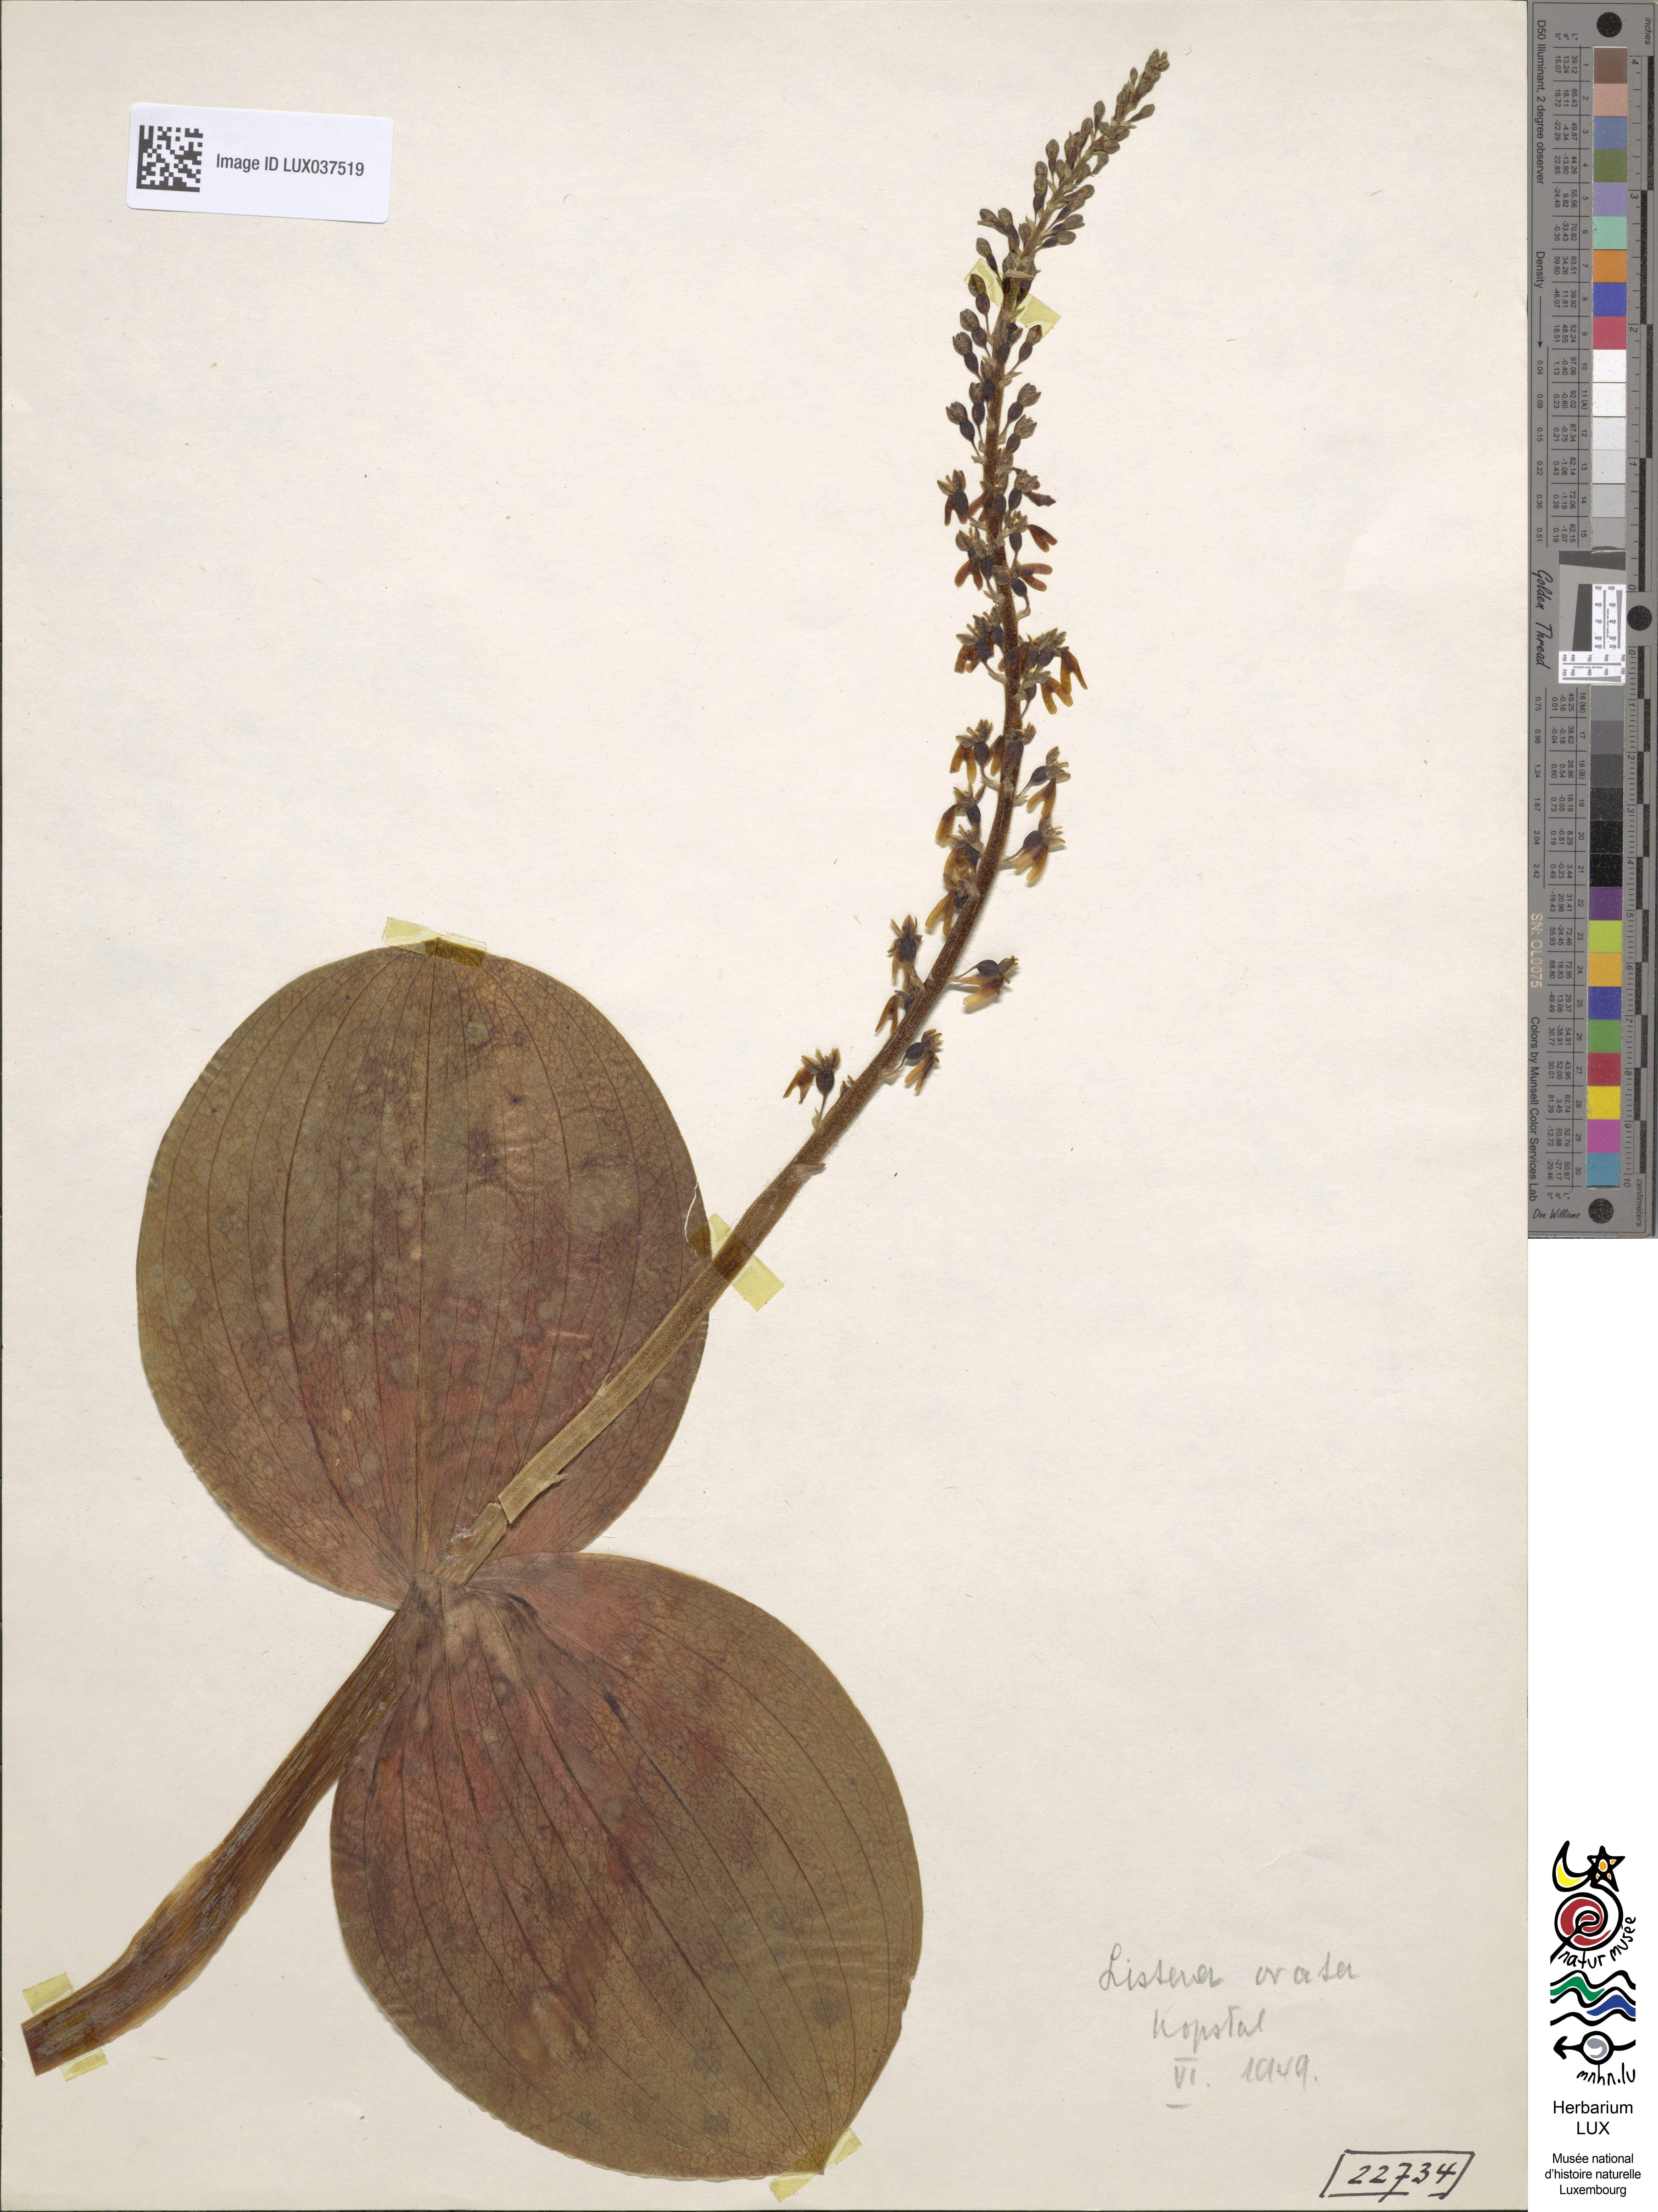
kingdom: Plantae
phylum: Tracheophyta
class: Liliopsida
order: Asparagales
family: Orchidaceae
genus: Neottia
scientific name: Neottia ovata
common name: Common twayblade
